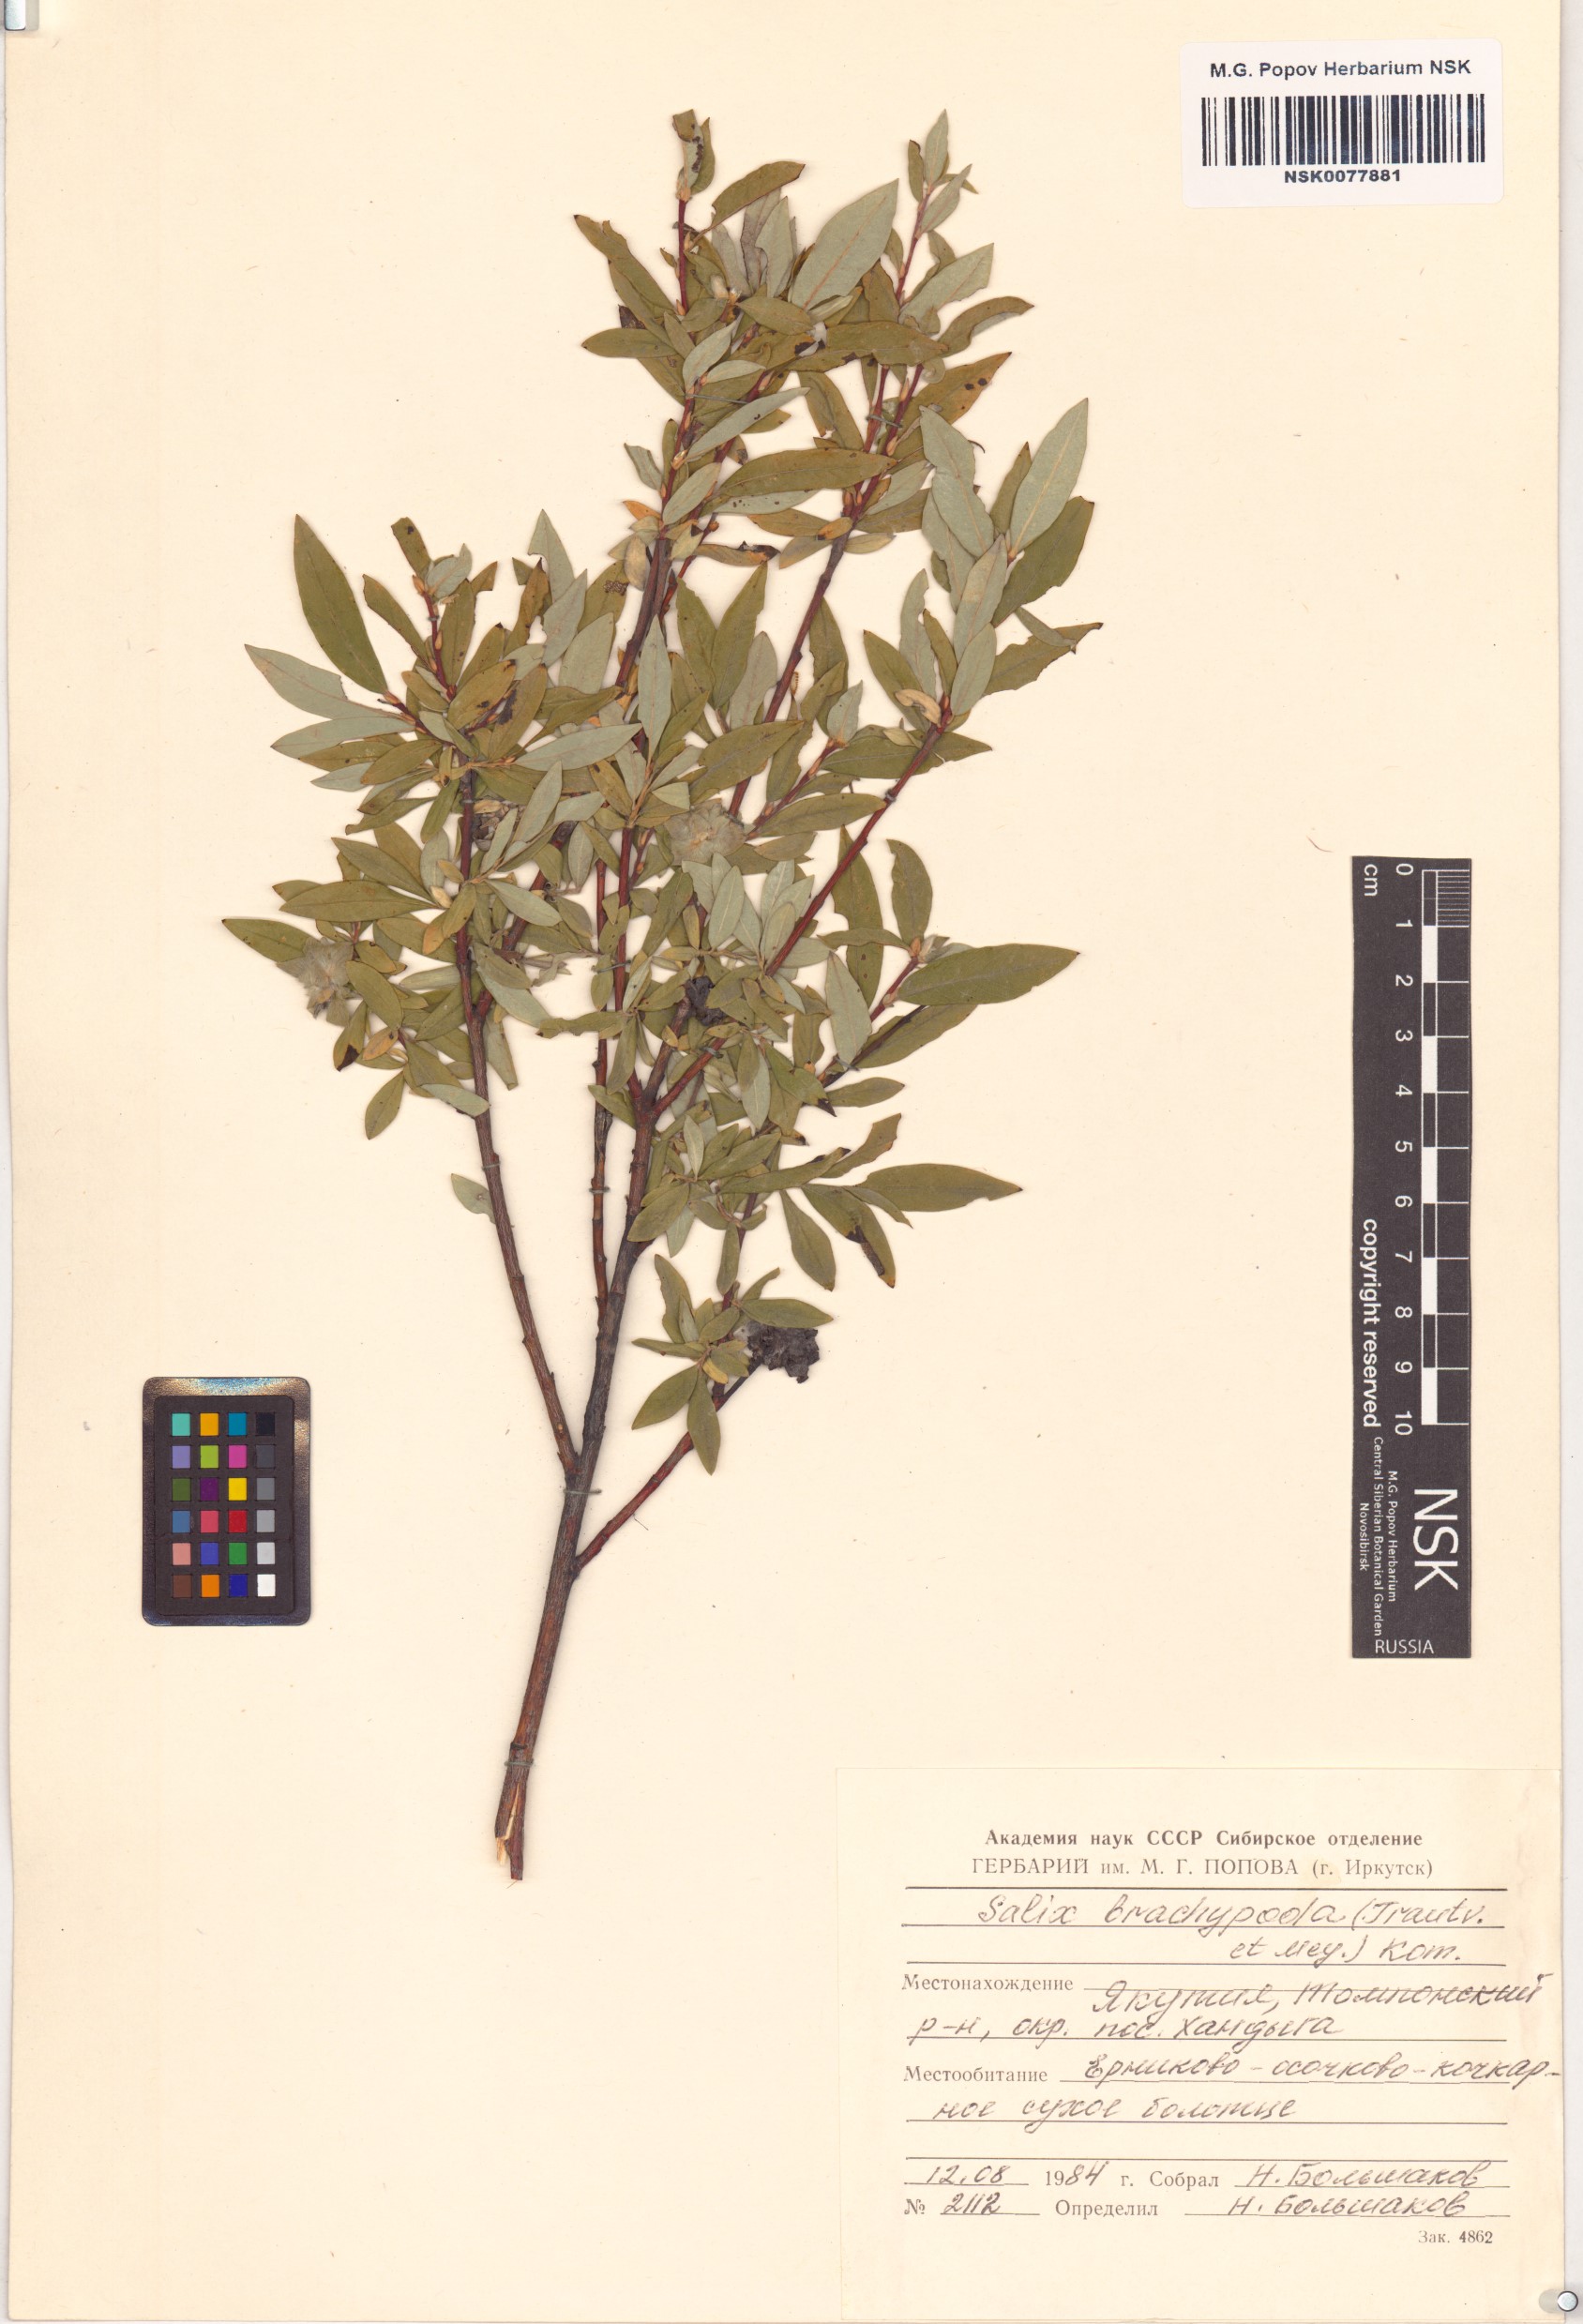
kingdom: Plantae
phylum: Tracheophyta
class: Magnoliopsida
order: Malpighiales
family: Salicaceae
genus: Salix
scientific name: Salix brachypoda
